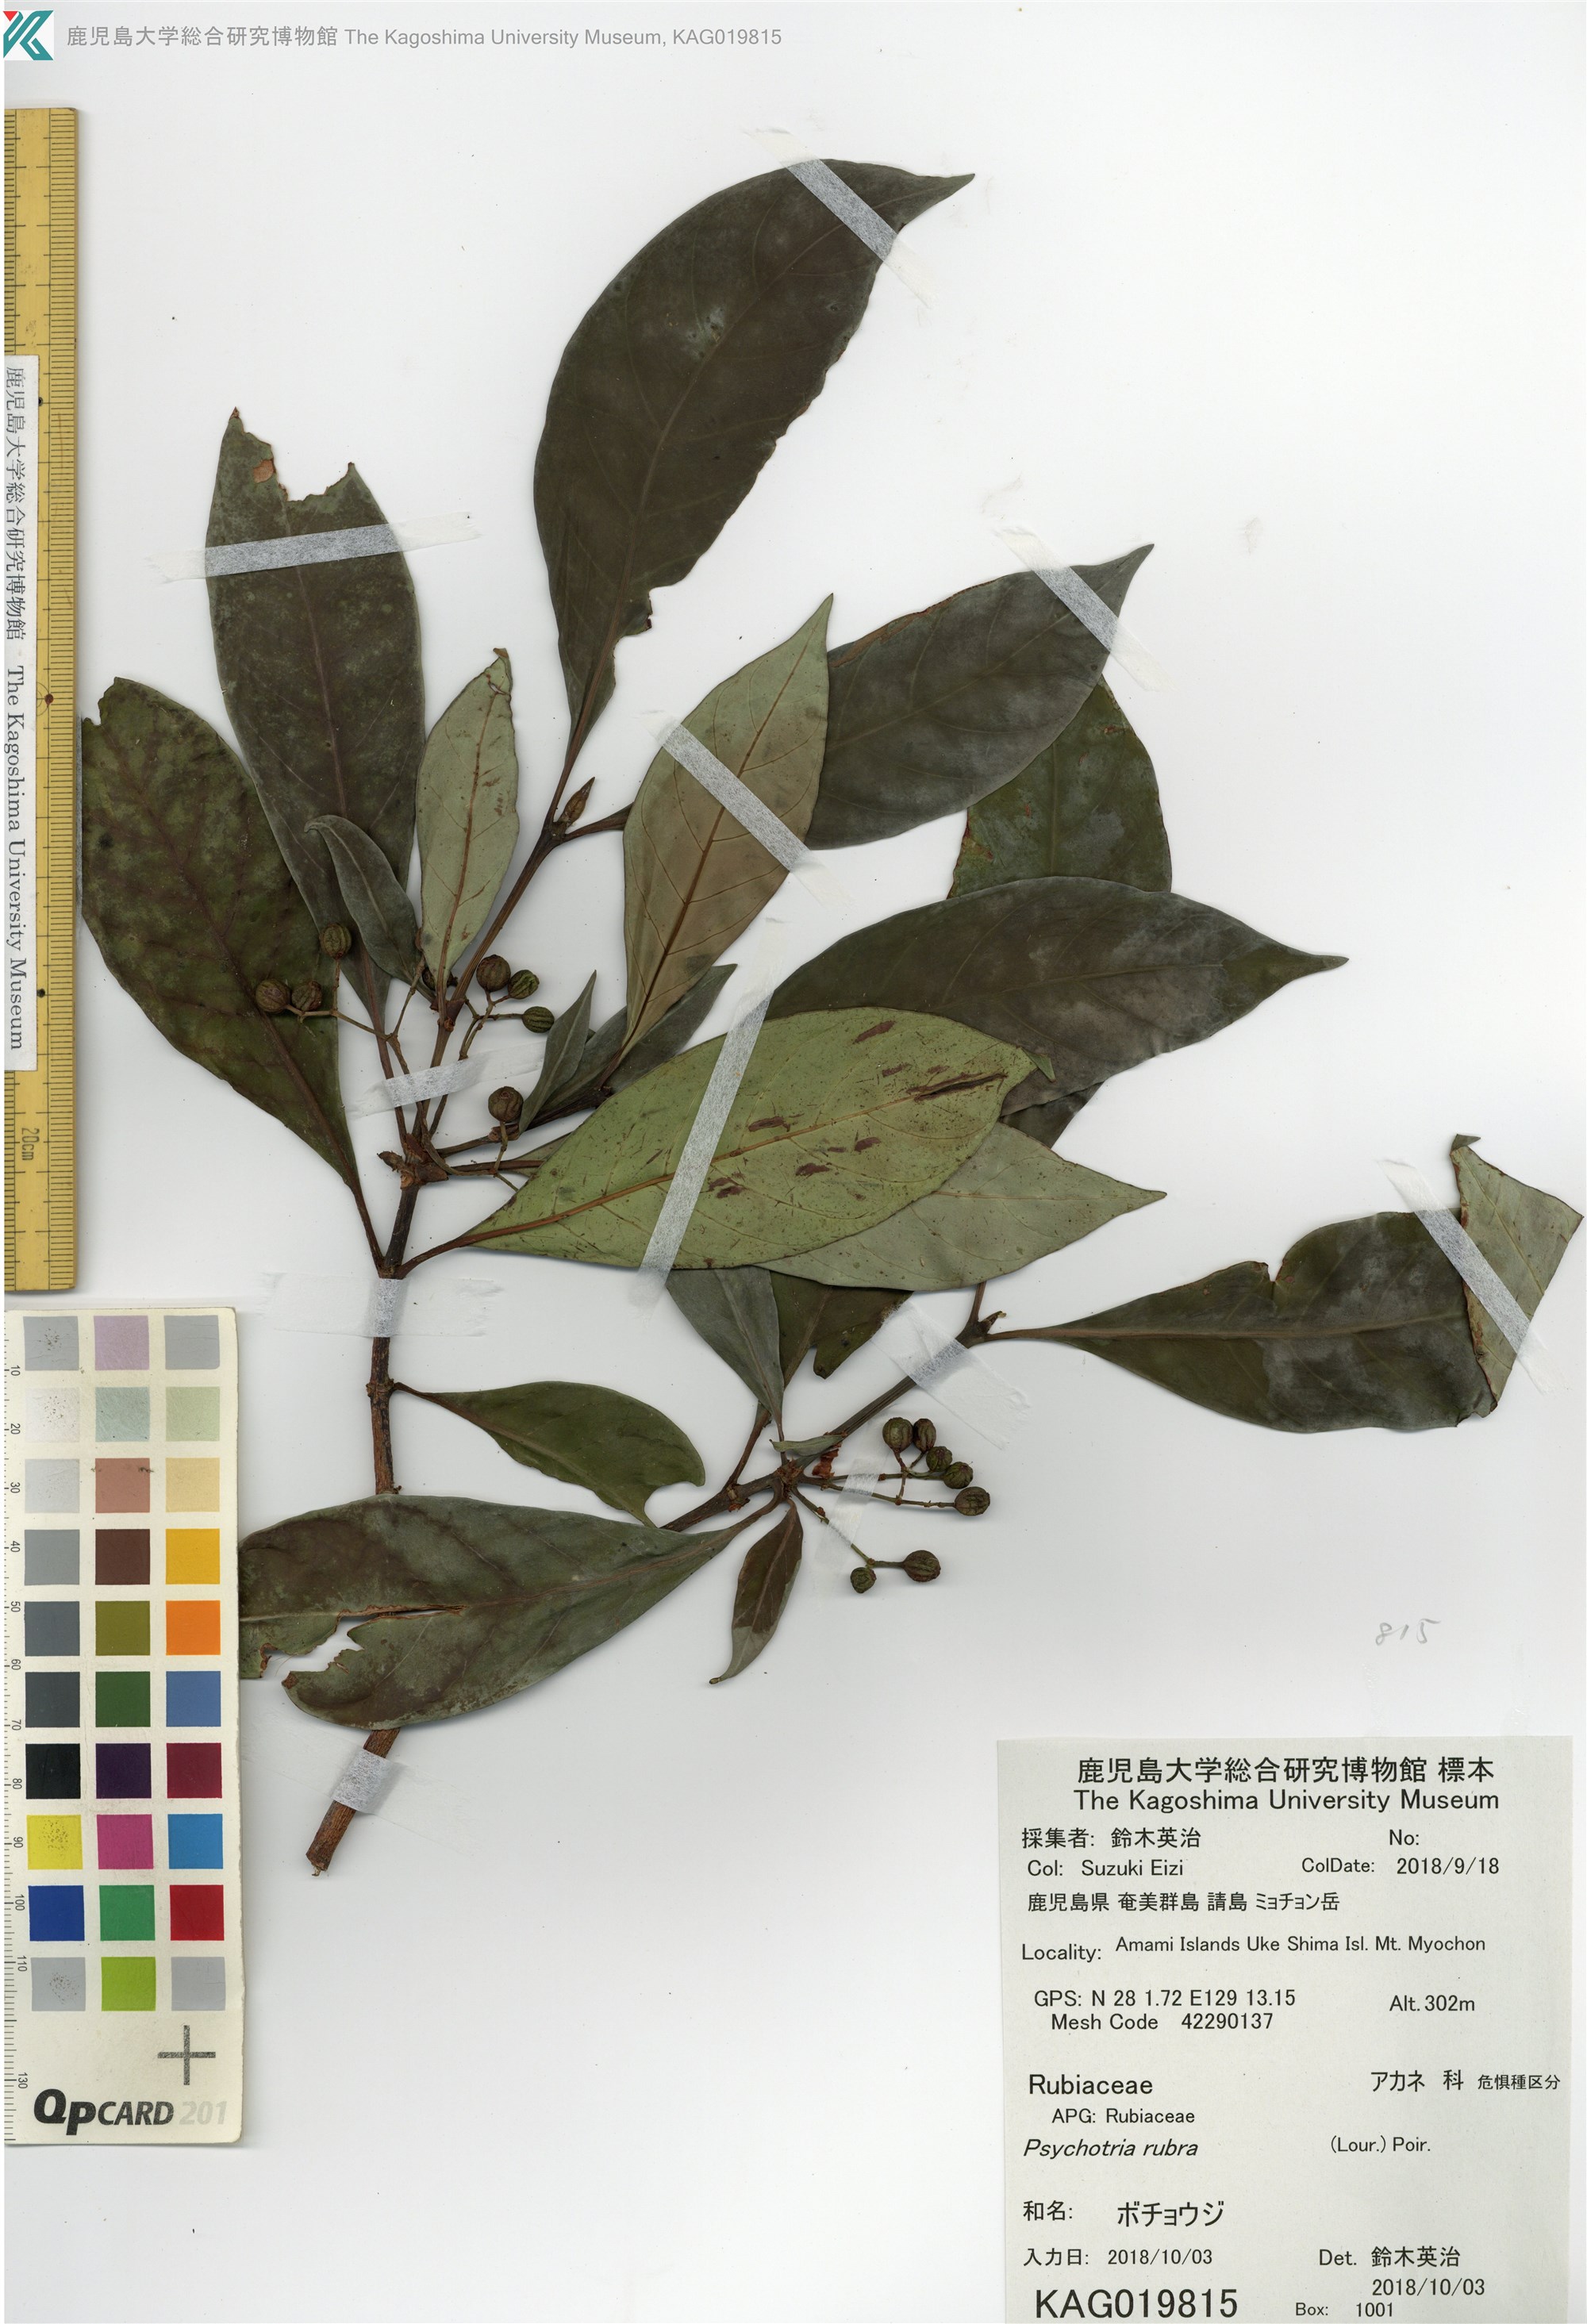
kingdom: Plantae
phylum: Tracheophyta
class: Magnoliopsida
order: Gentianales
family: Rubiaceae
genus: Psychotria
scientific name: Psychotria asiatica
